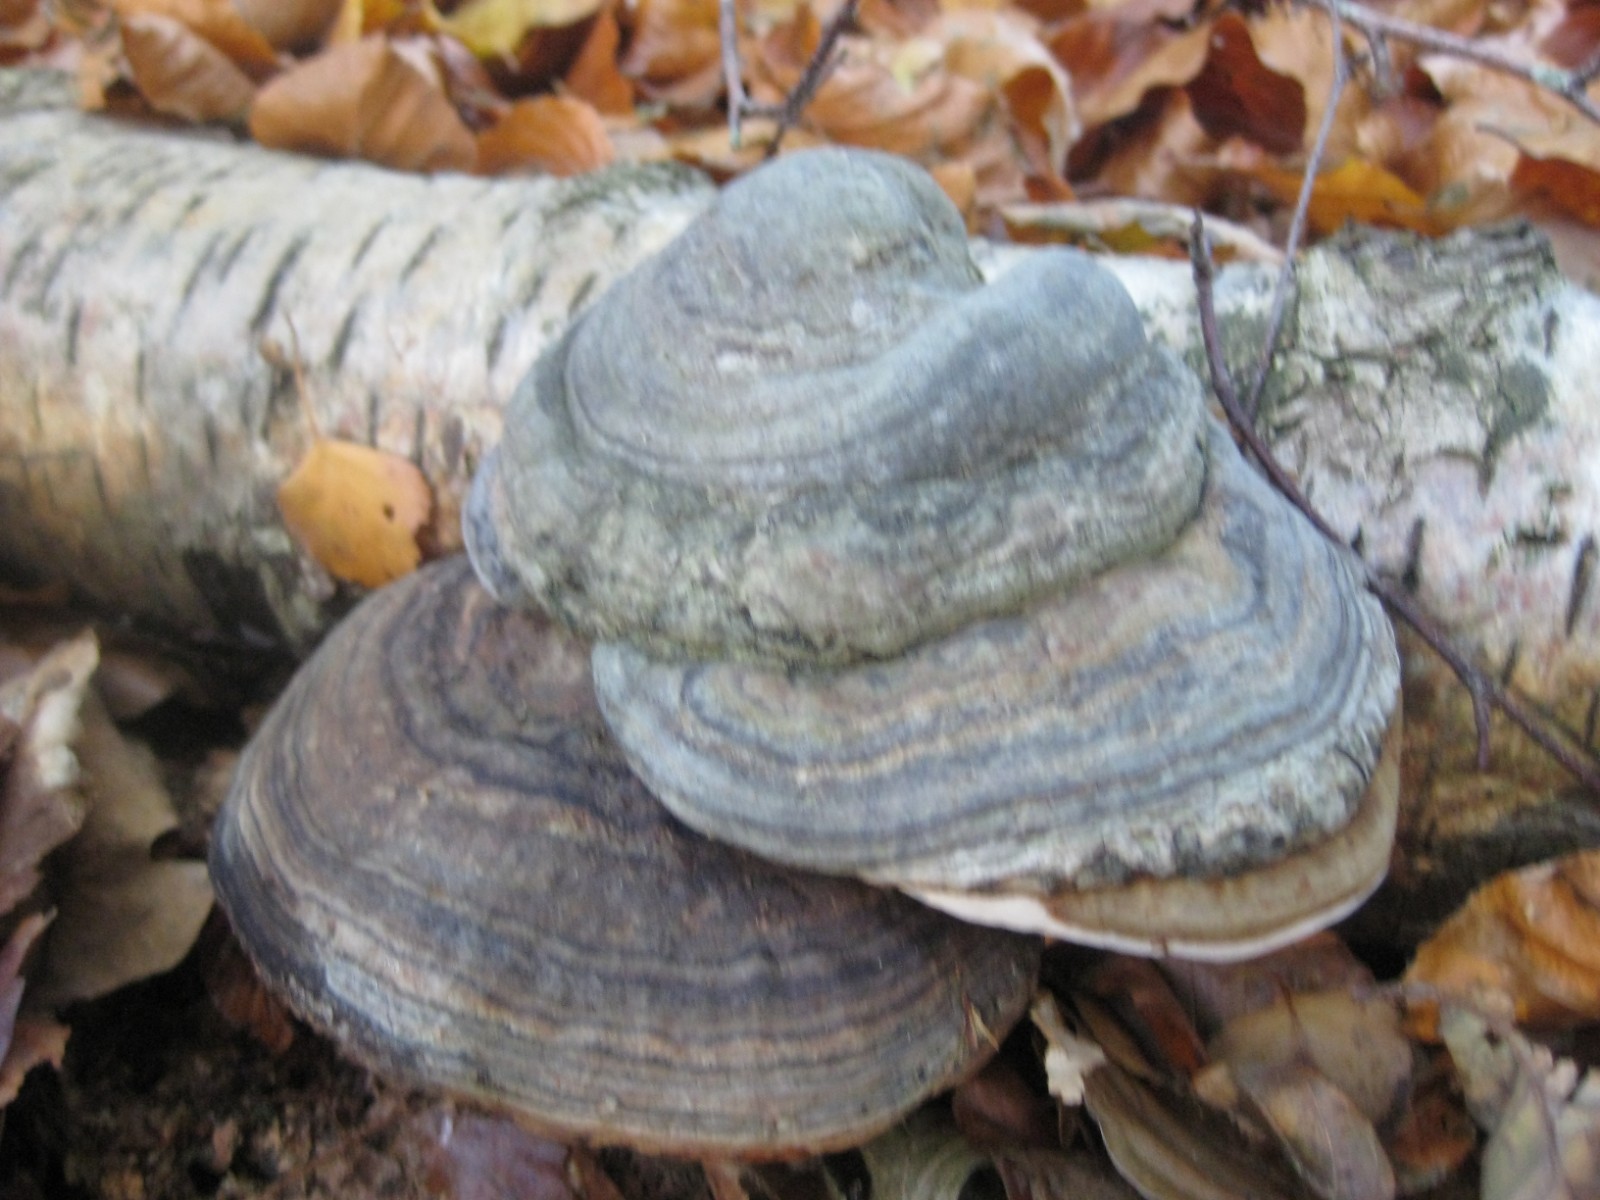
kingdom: Fungi
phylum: Basidiomycota
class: Agaricomycetes
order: Polyporales
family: Polyporaceae
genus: Fomes
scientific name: Fomes fomentarius
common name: tøndersvamp
